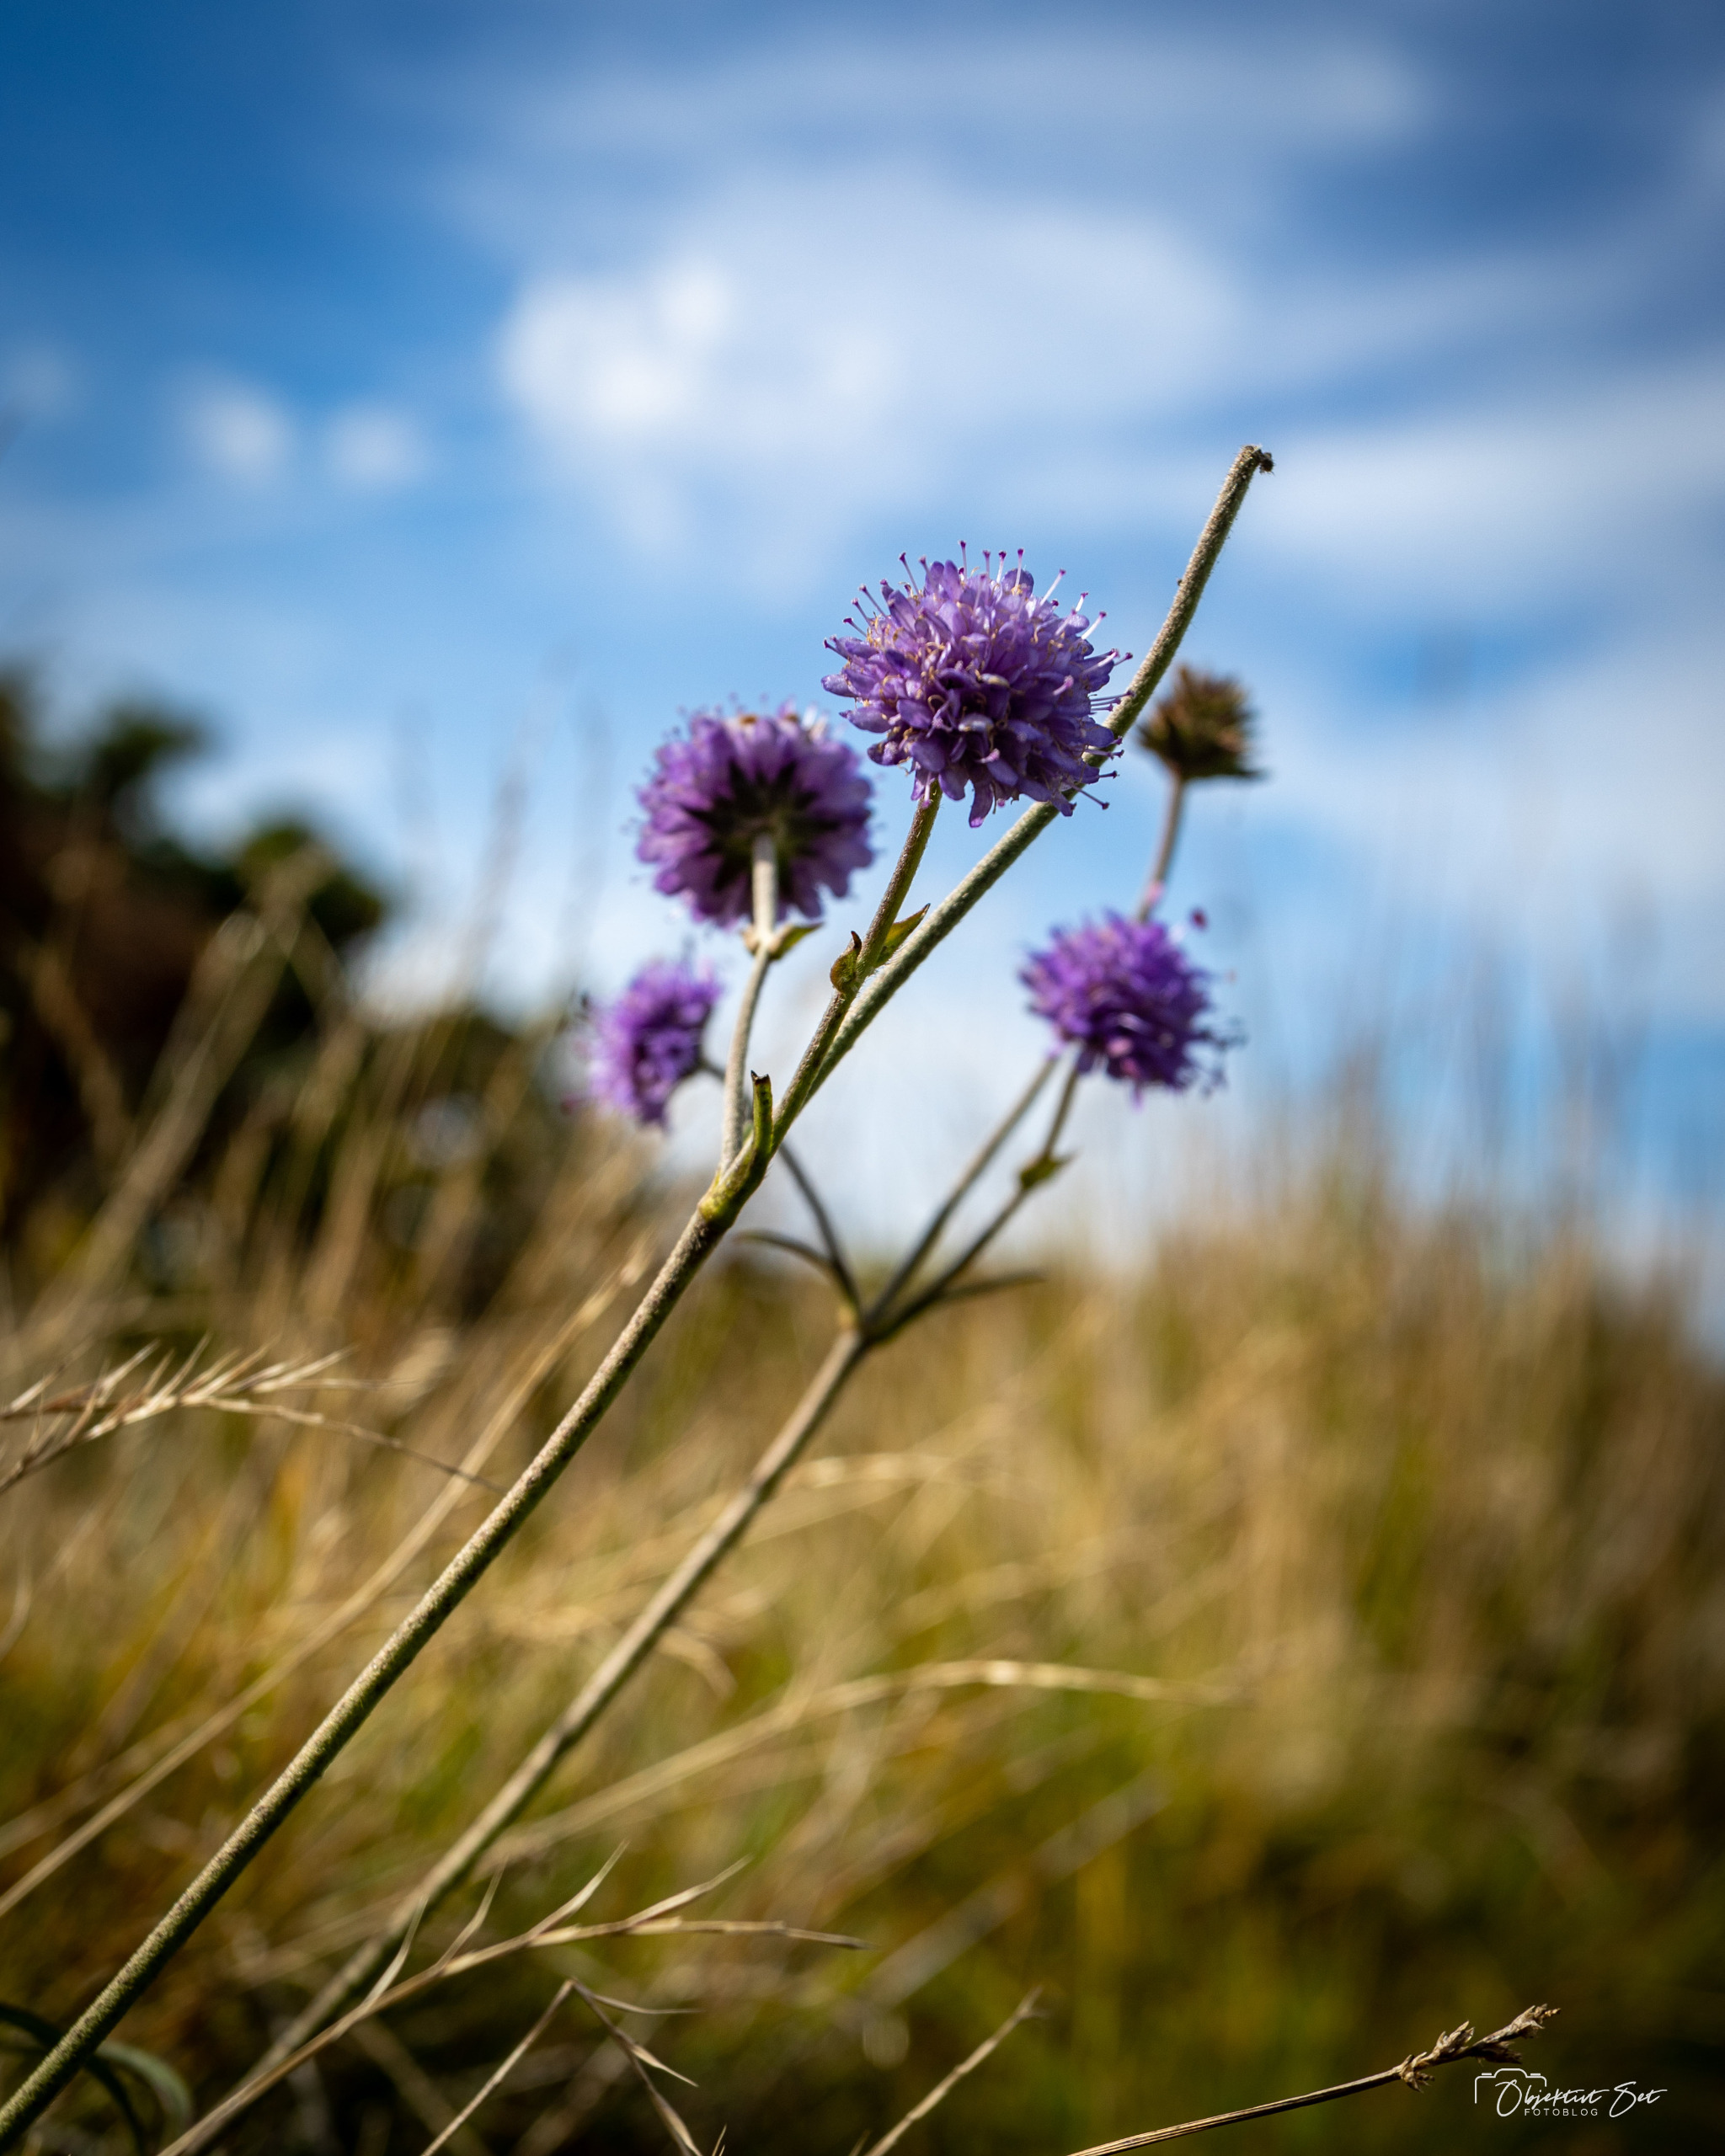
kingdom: Plantae
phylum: Tracheophyta
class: Magnoliopsida
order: Dipsacales
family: Caprifoliaceae
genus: Succisa
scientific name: Succisa pratensis
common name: Djævelsbid
